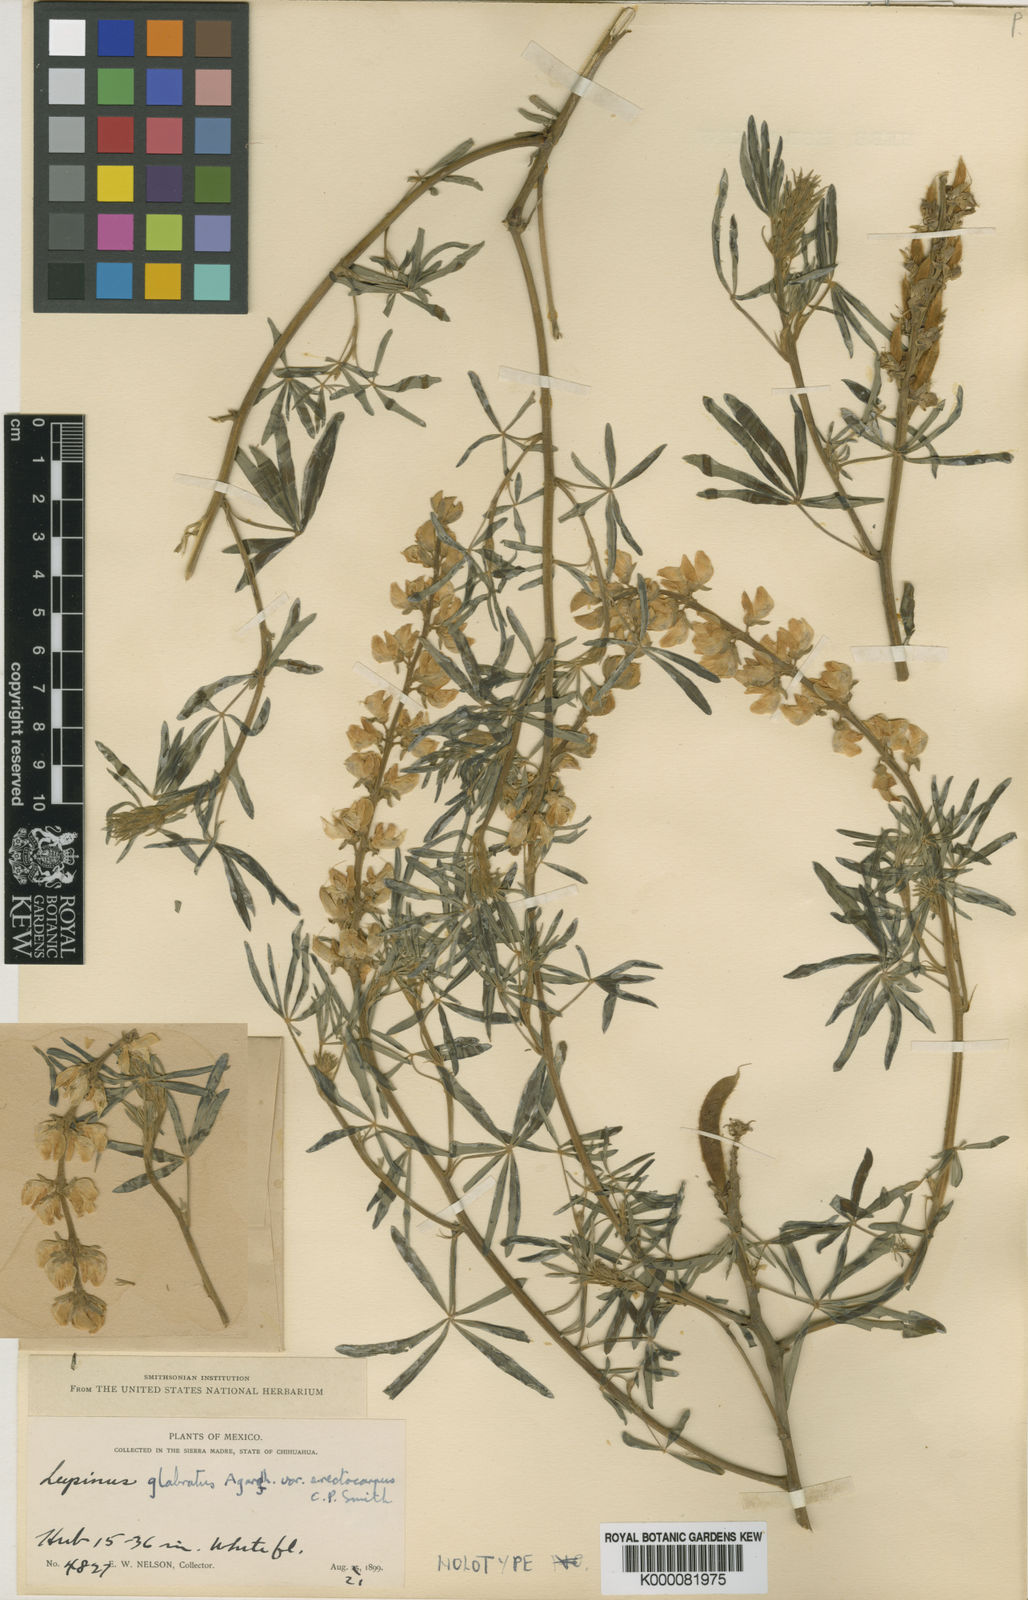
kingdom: Plantae
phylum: Tracheophyta
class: Magnoliopsida
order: Fabales
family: Fabaceae
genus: Lupinus
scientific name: Lupinus glabratus
